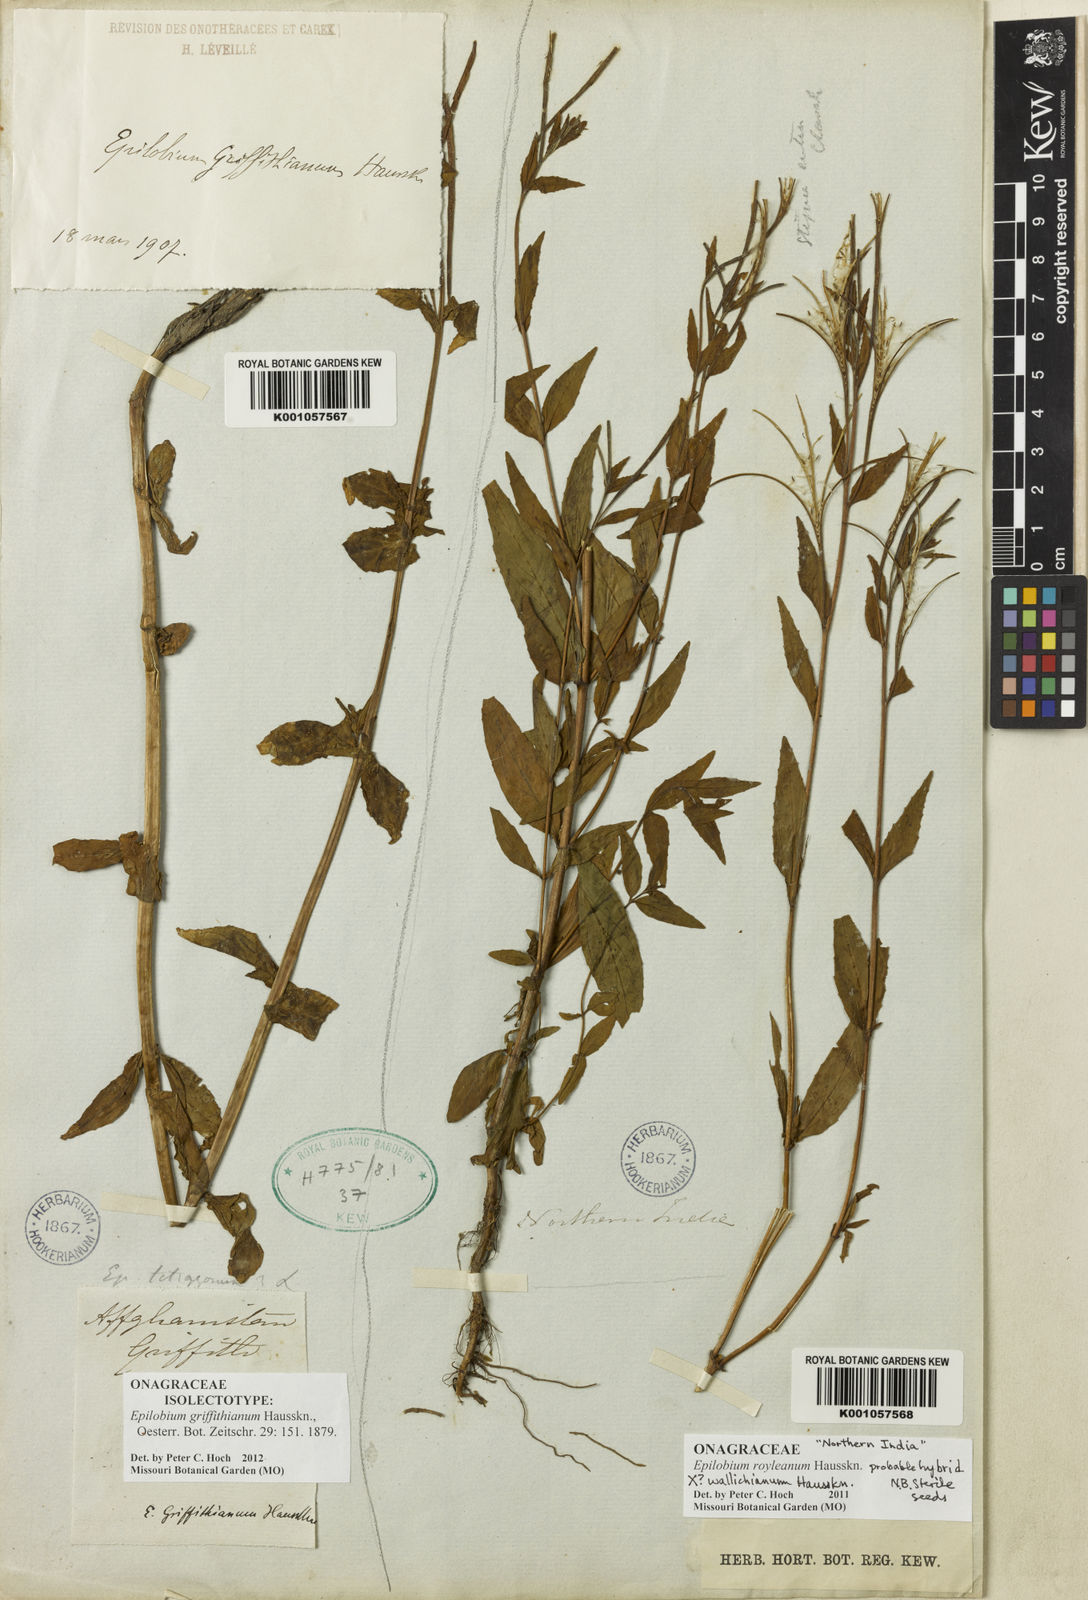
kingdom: Plantae
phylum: Tracheophyta
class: Magnoliopsida
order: Myrtales
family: Onagraceae
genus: Epilobium
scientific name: Epilobium griffithianum
